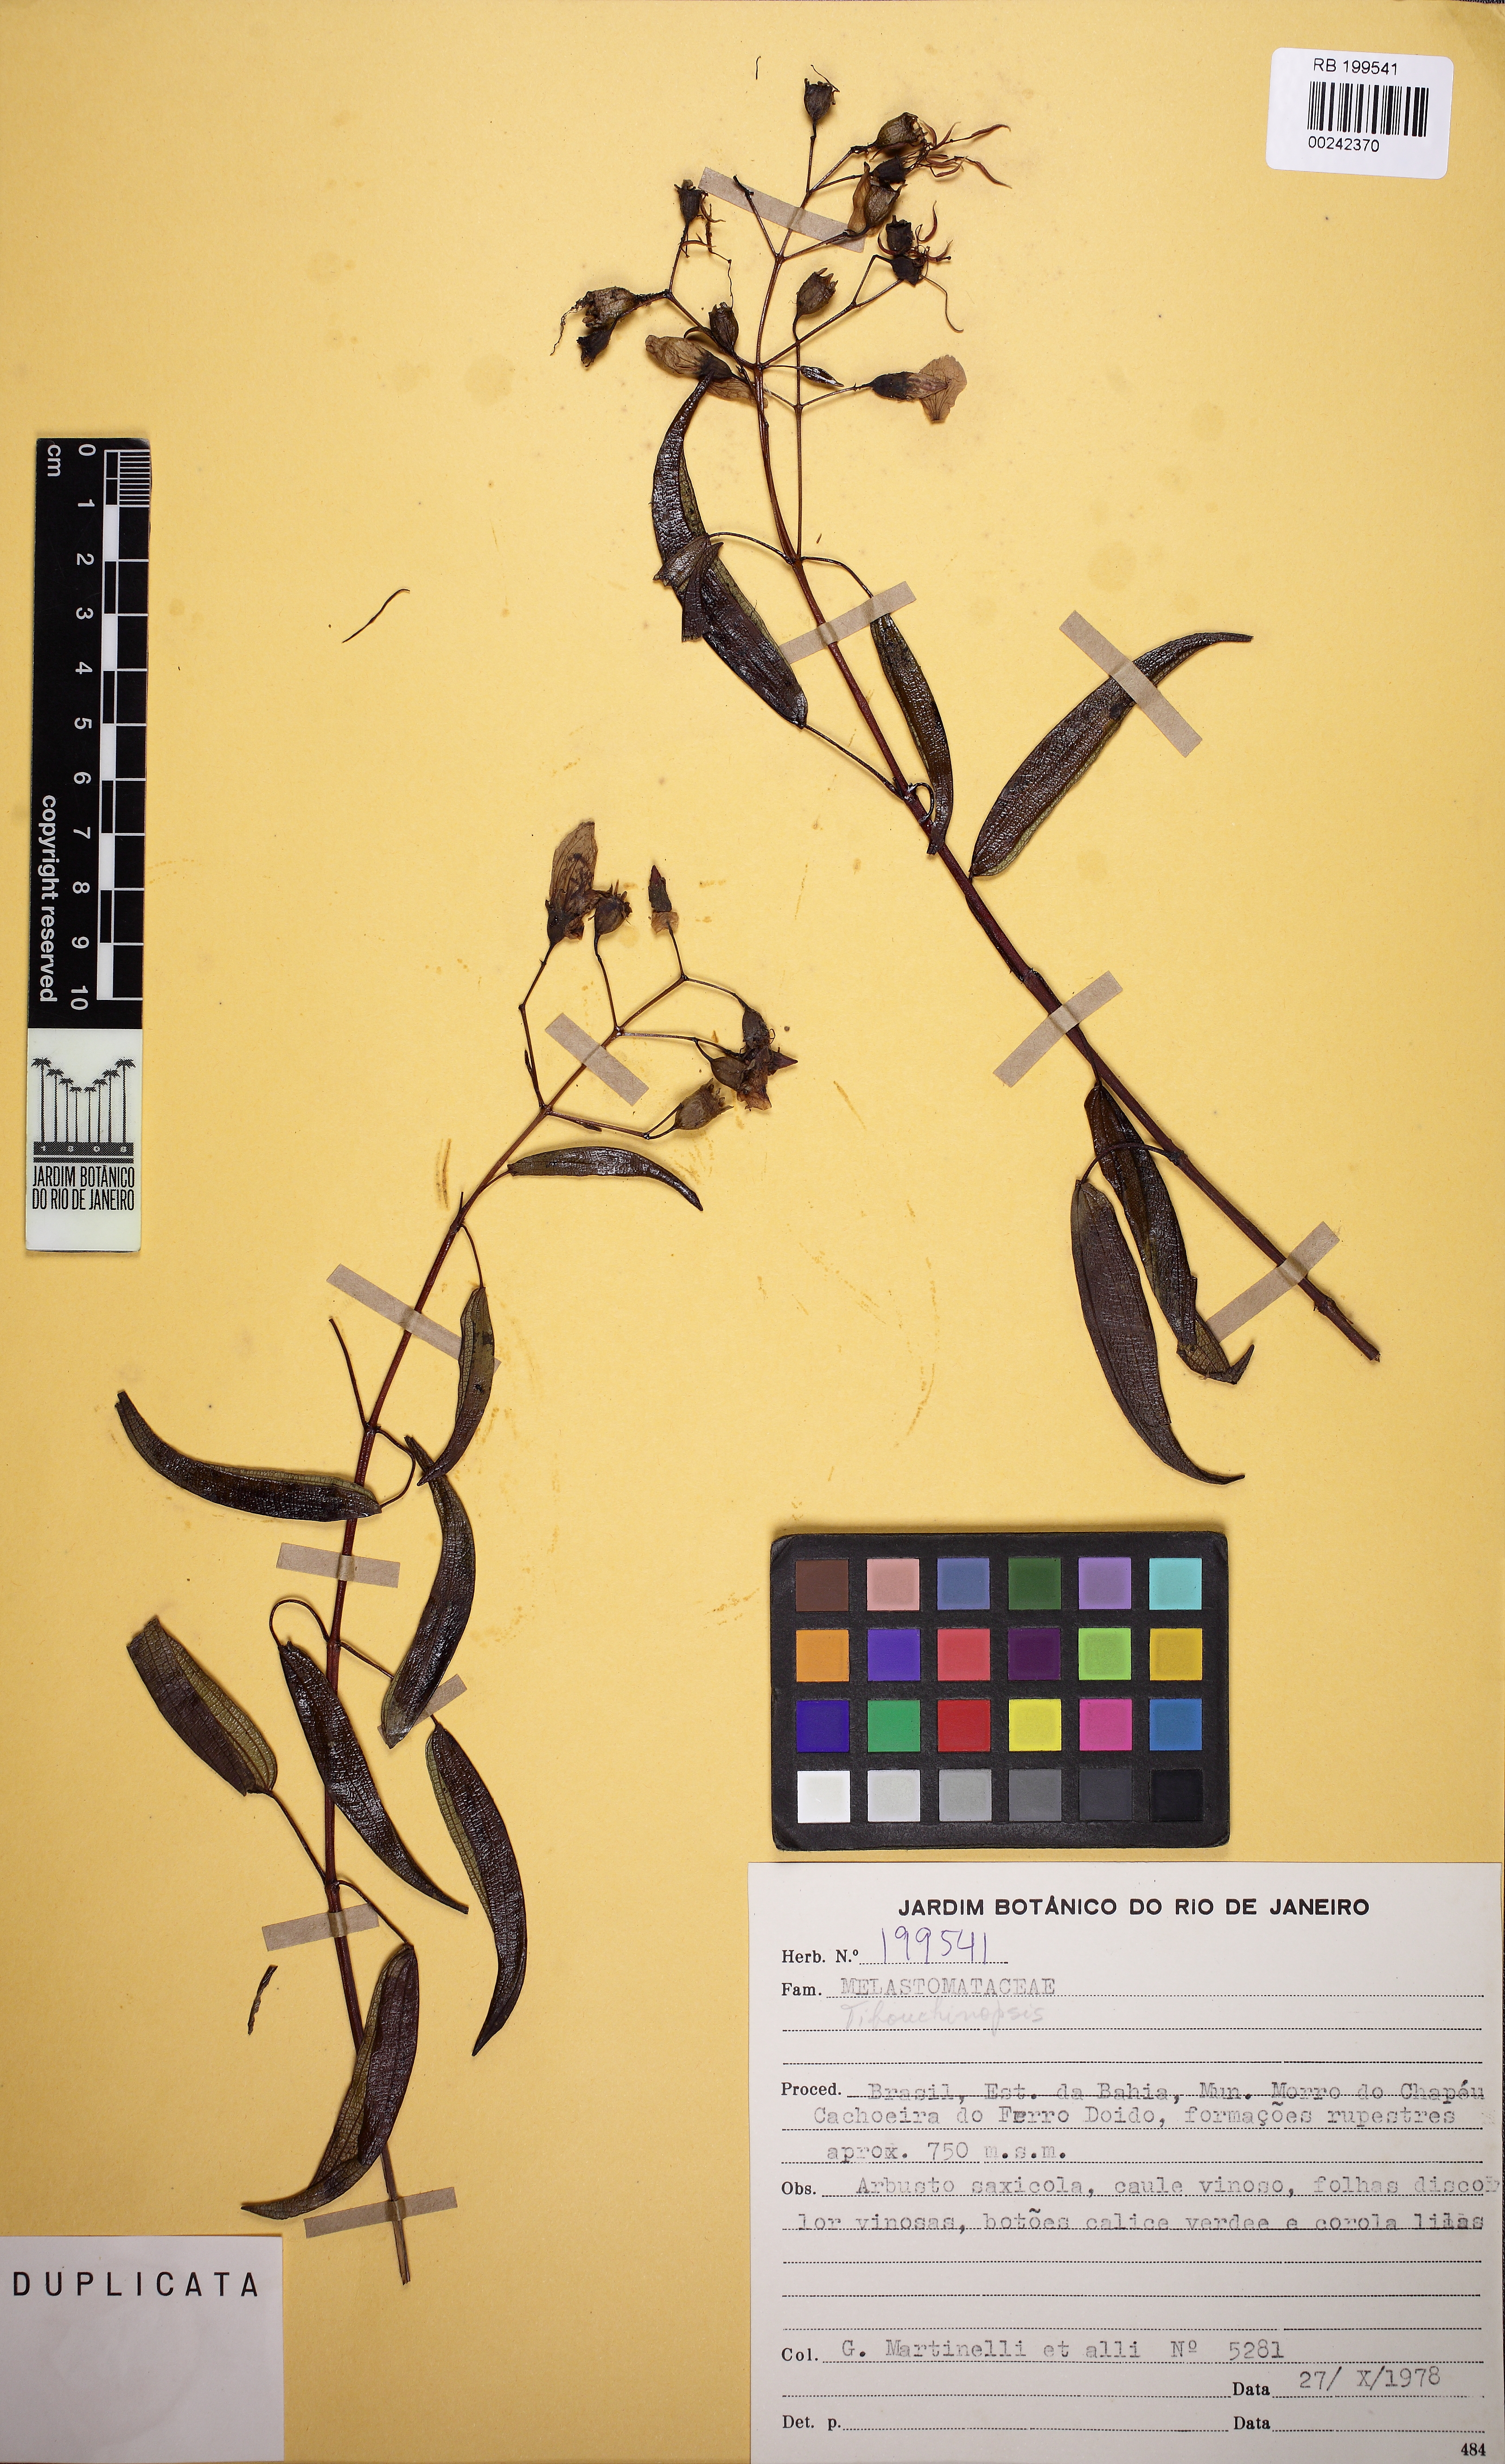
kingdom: Plantae
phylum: Tracheophyta
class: Magnoliopsida
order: Myrtales
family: Melastomataceae
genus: Pleroma
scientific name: Pleroma glutinosum
